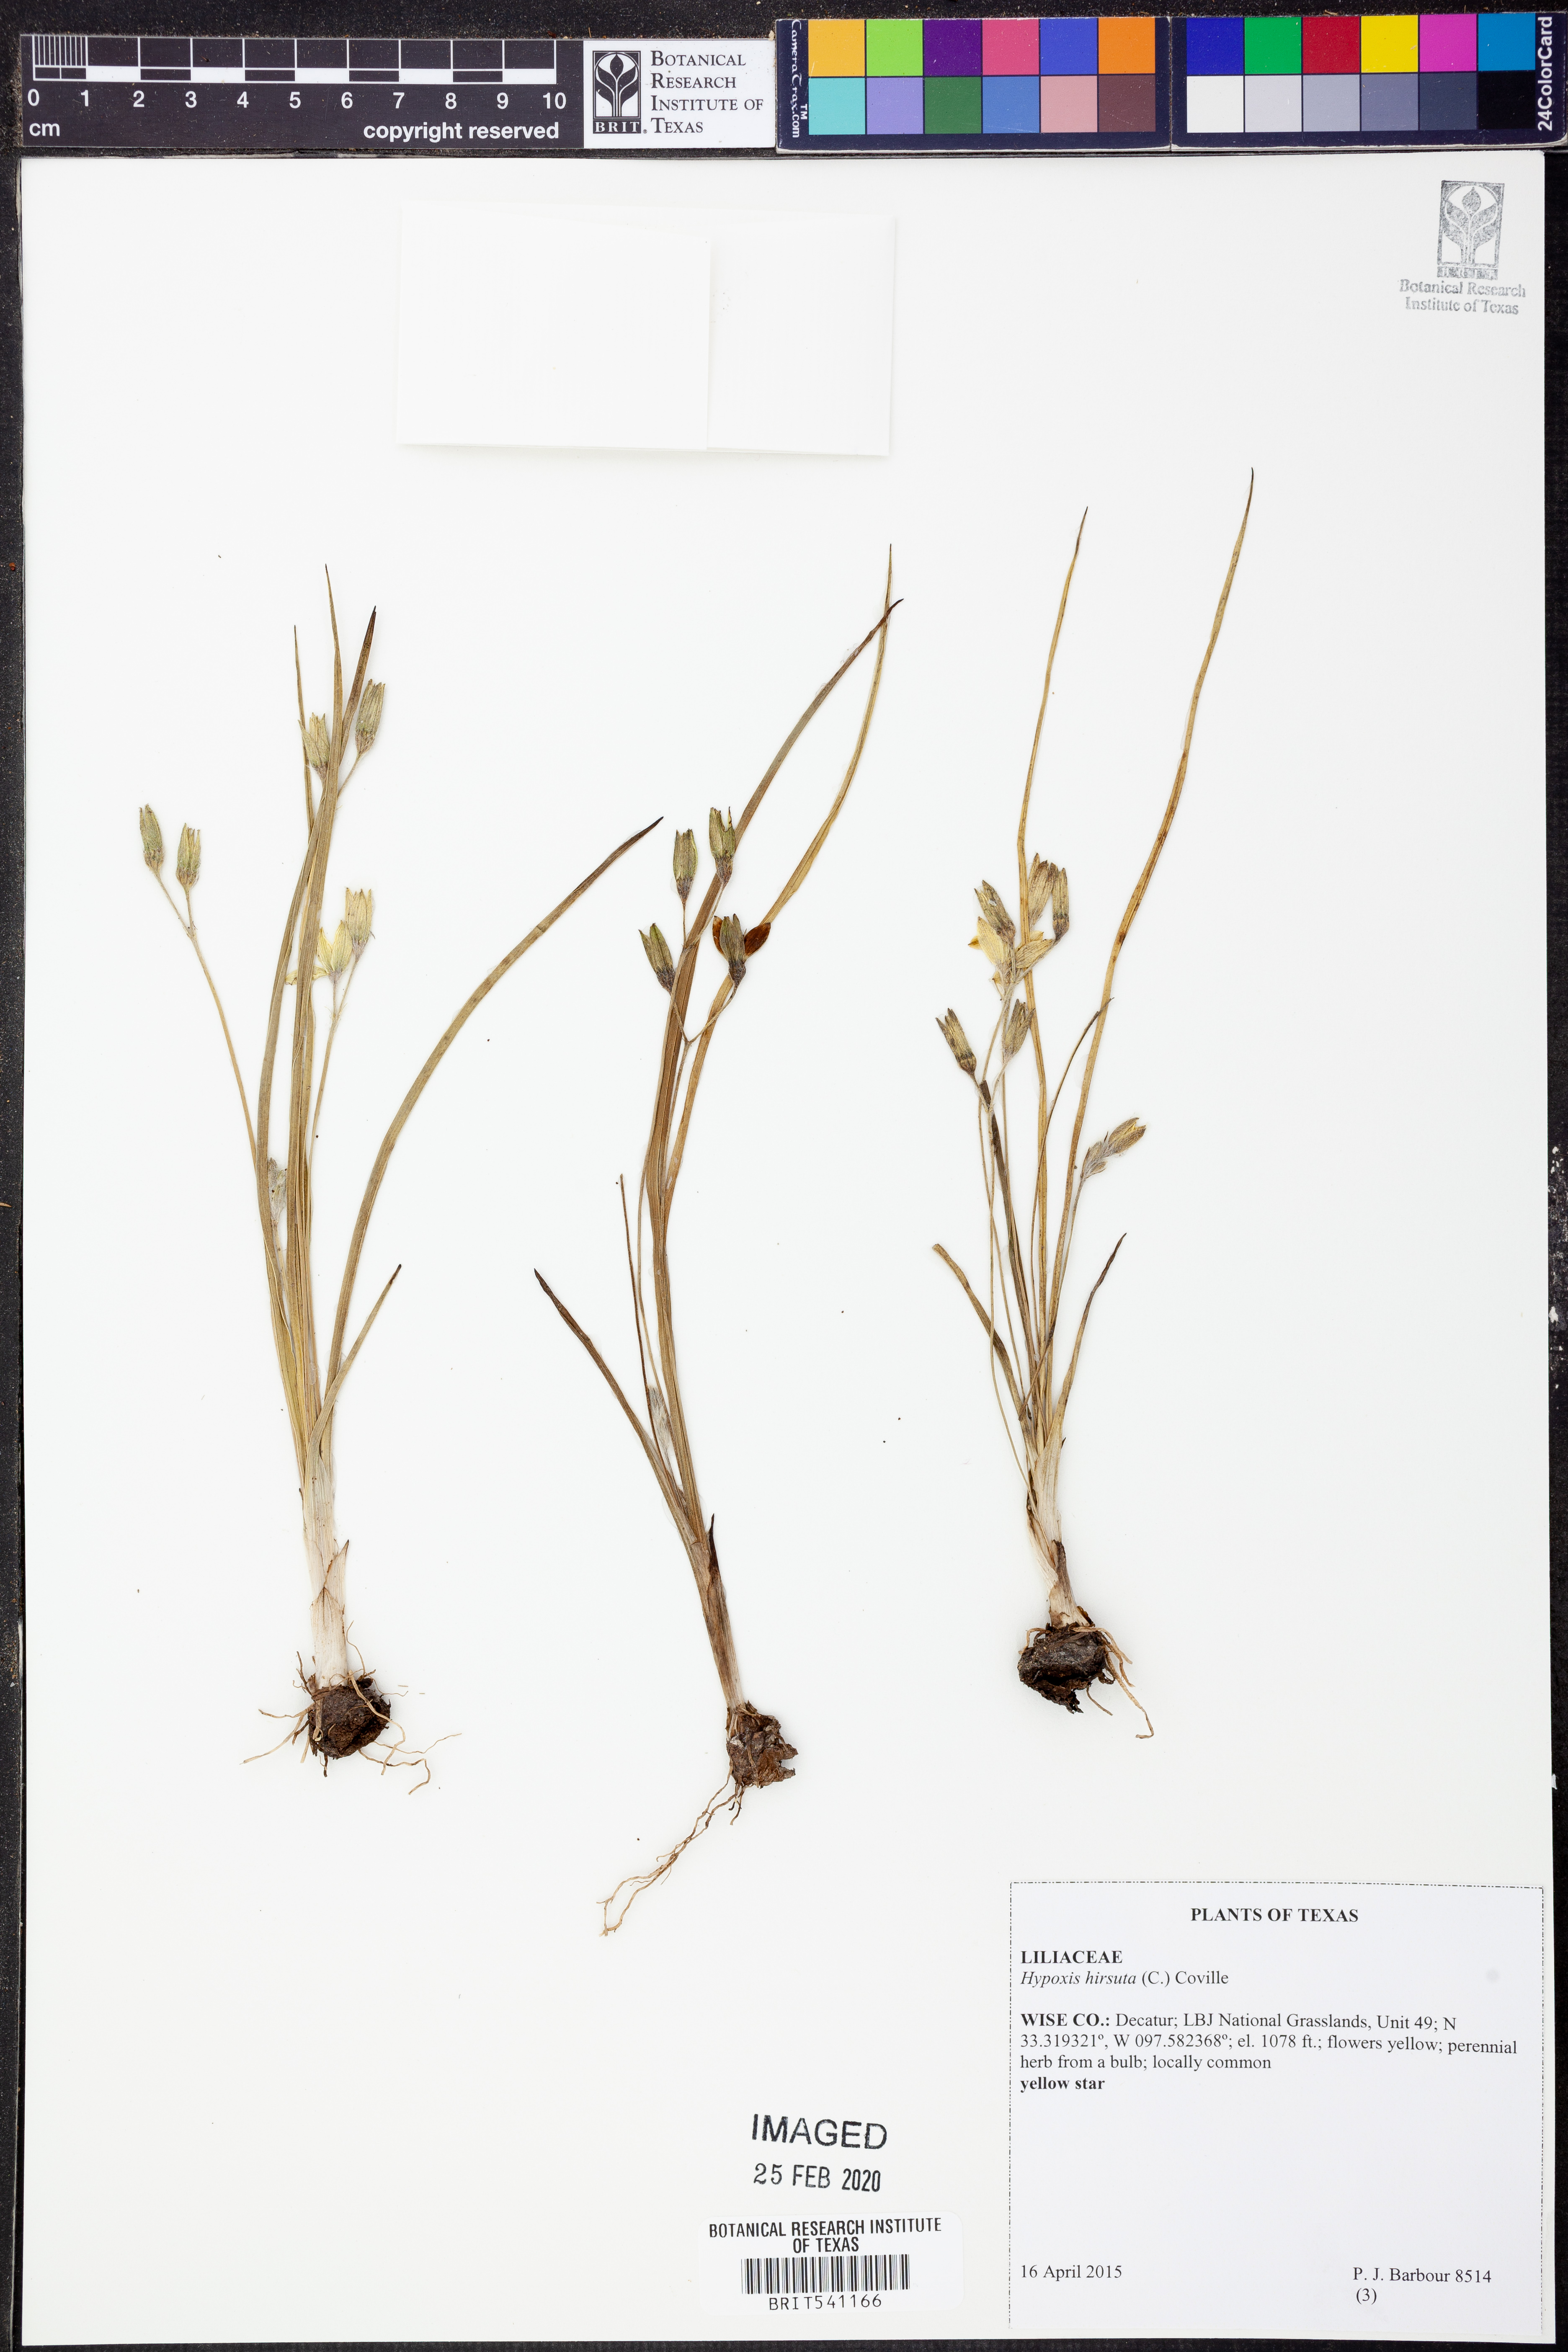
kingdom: Plantae
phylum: Tracheophyta
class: Liliopsida
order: Asparagales
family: Hypoxidaceae
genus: Hypoxis
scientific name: Hypoxis hirsuta
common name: Common goldstar
